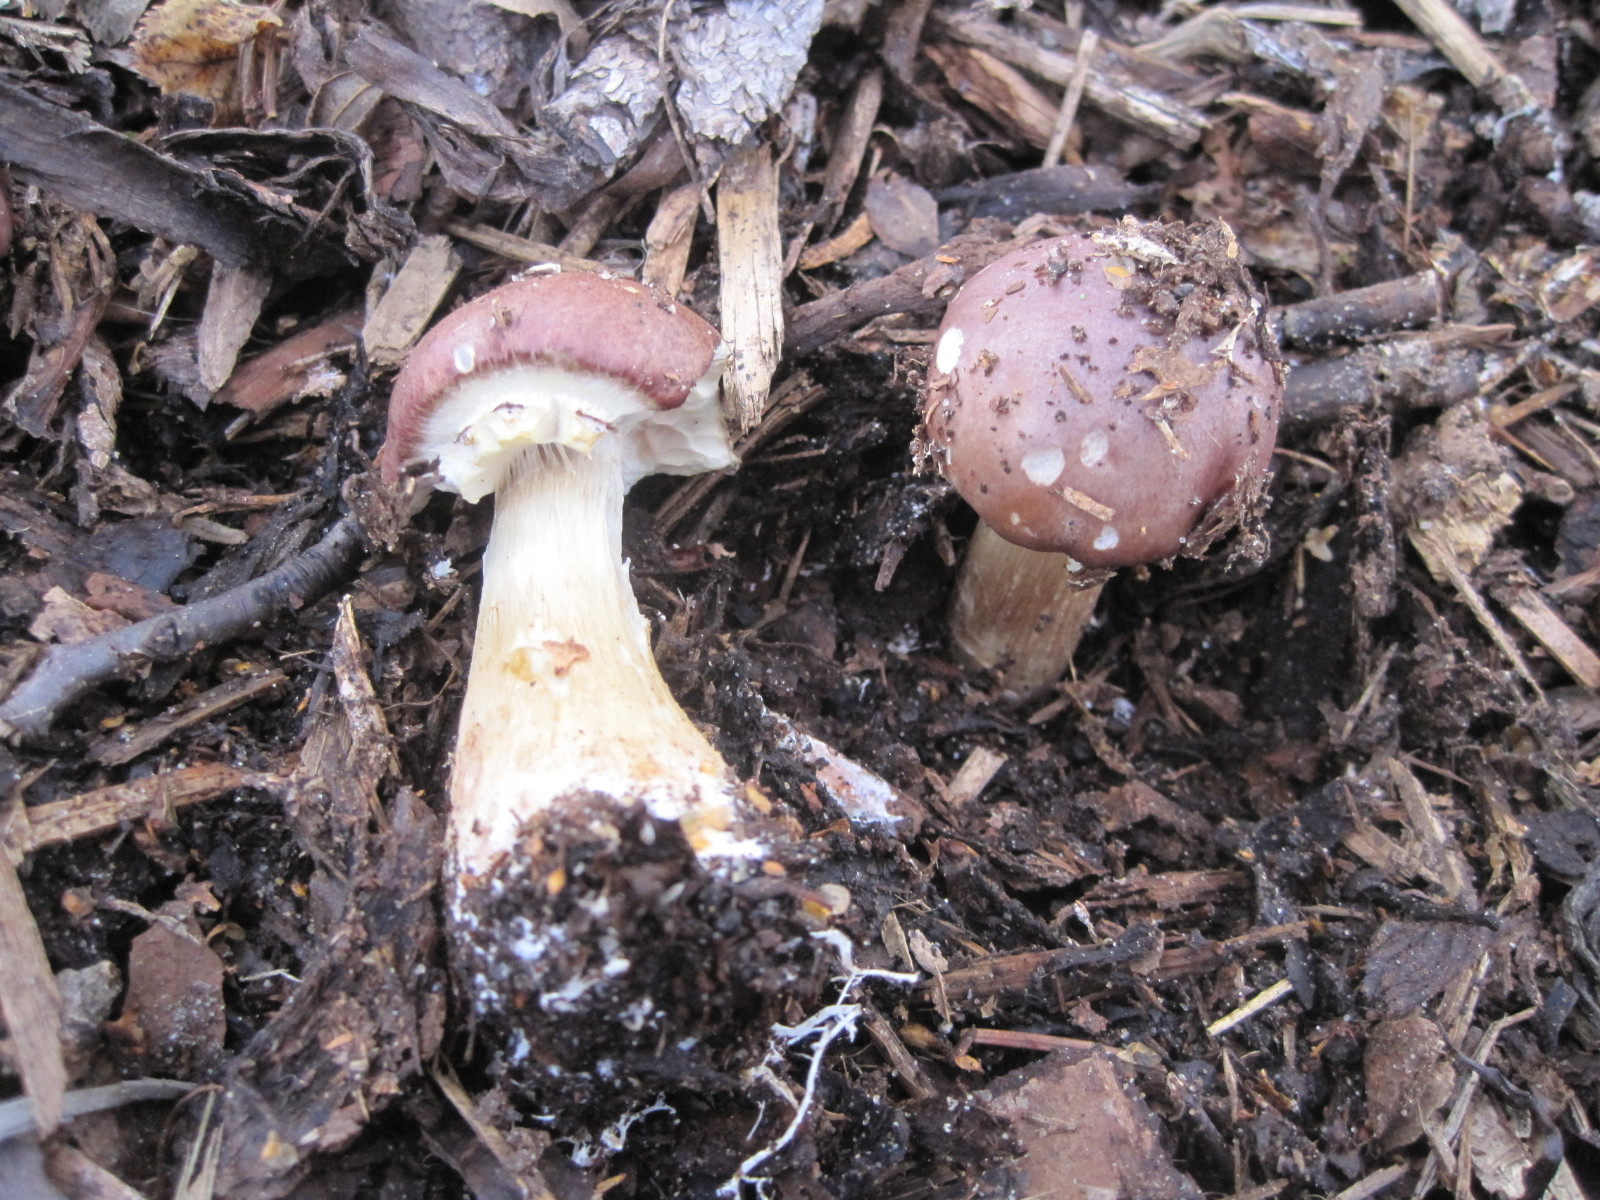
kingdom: Fungi
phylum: Basidiomycota
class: Agaricomycetes
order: Agaricales
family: Strophariaceae
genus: Stropharia
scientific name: Stropharia rugosoannulata
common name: rødbrun bredblad
